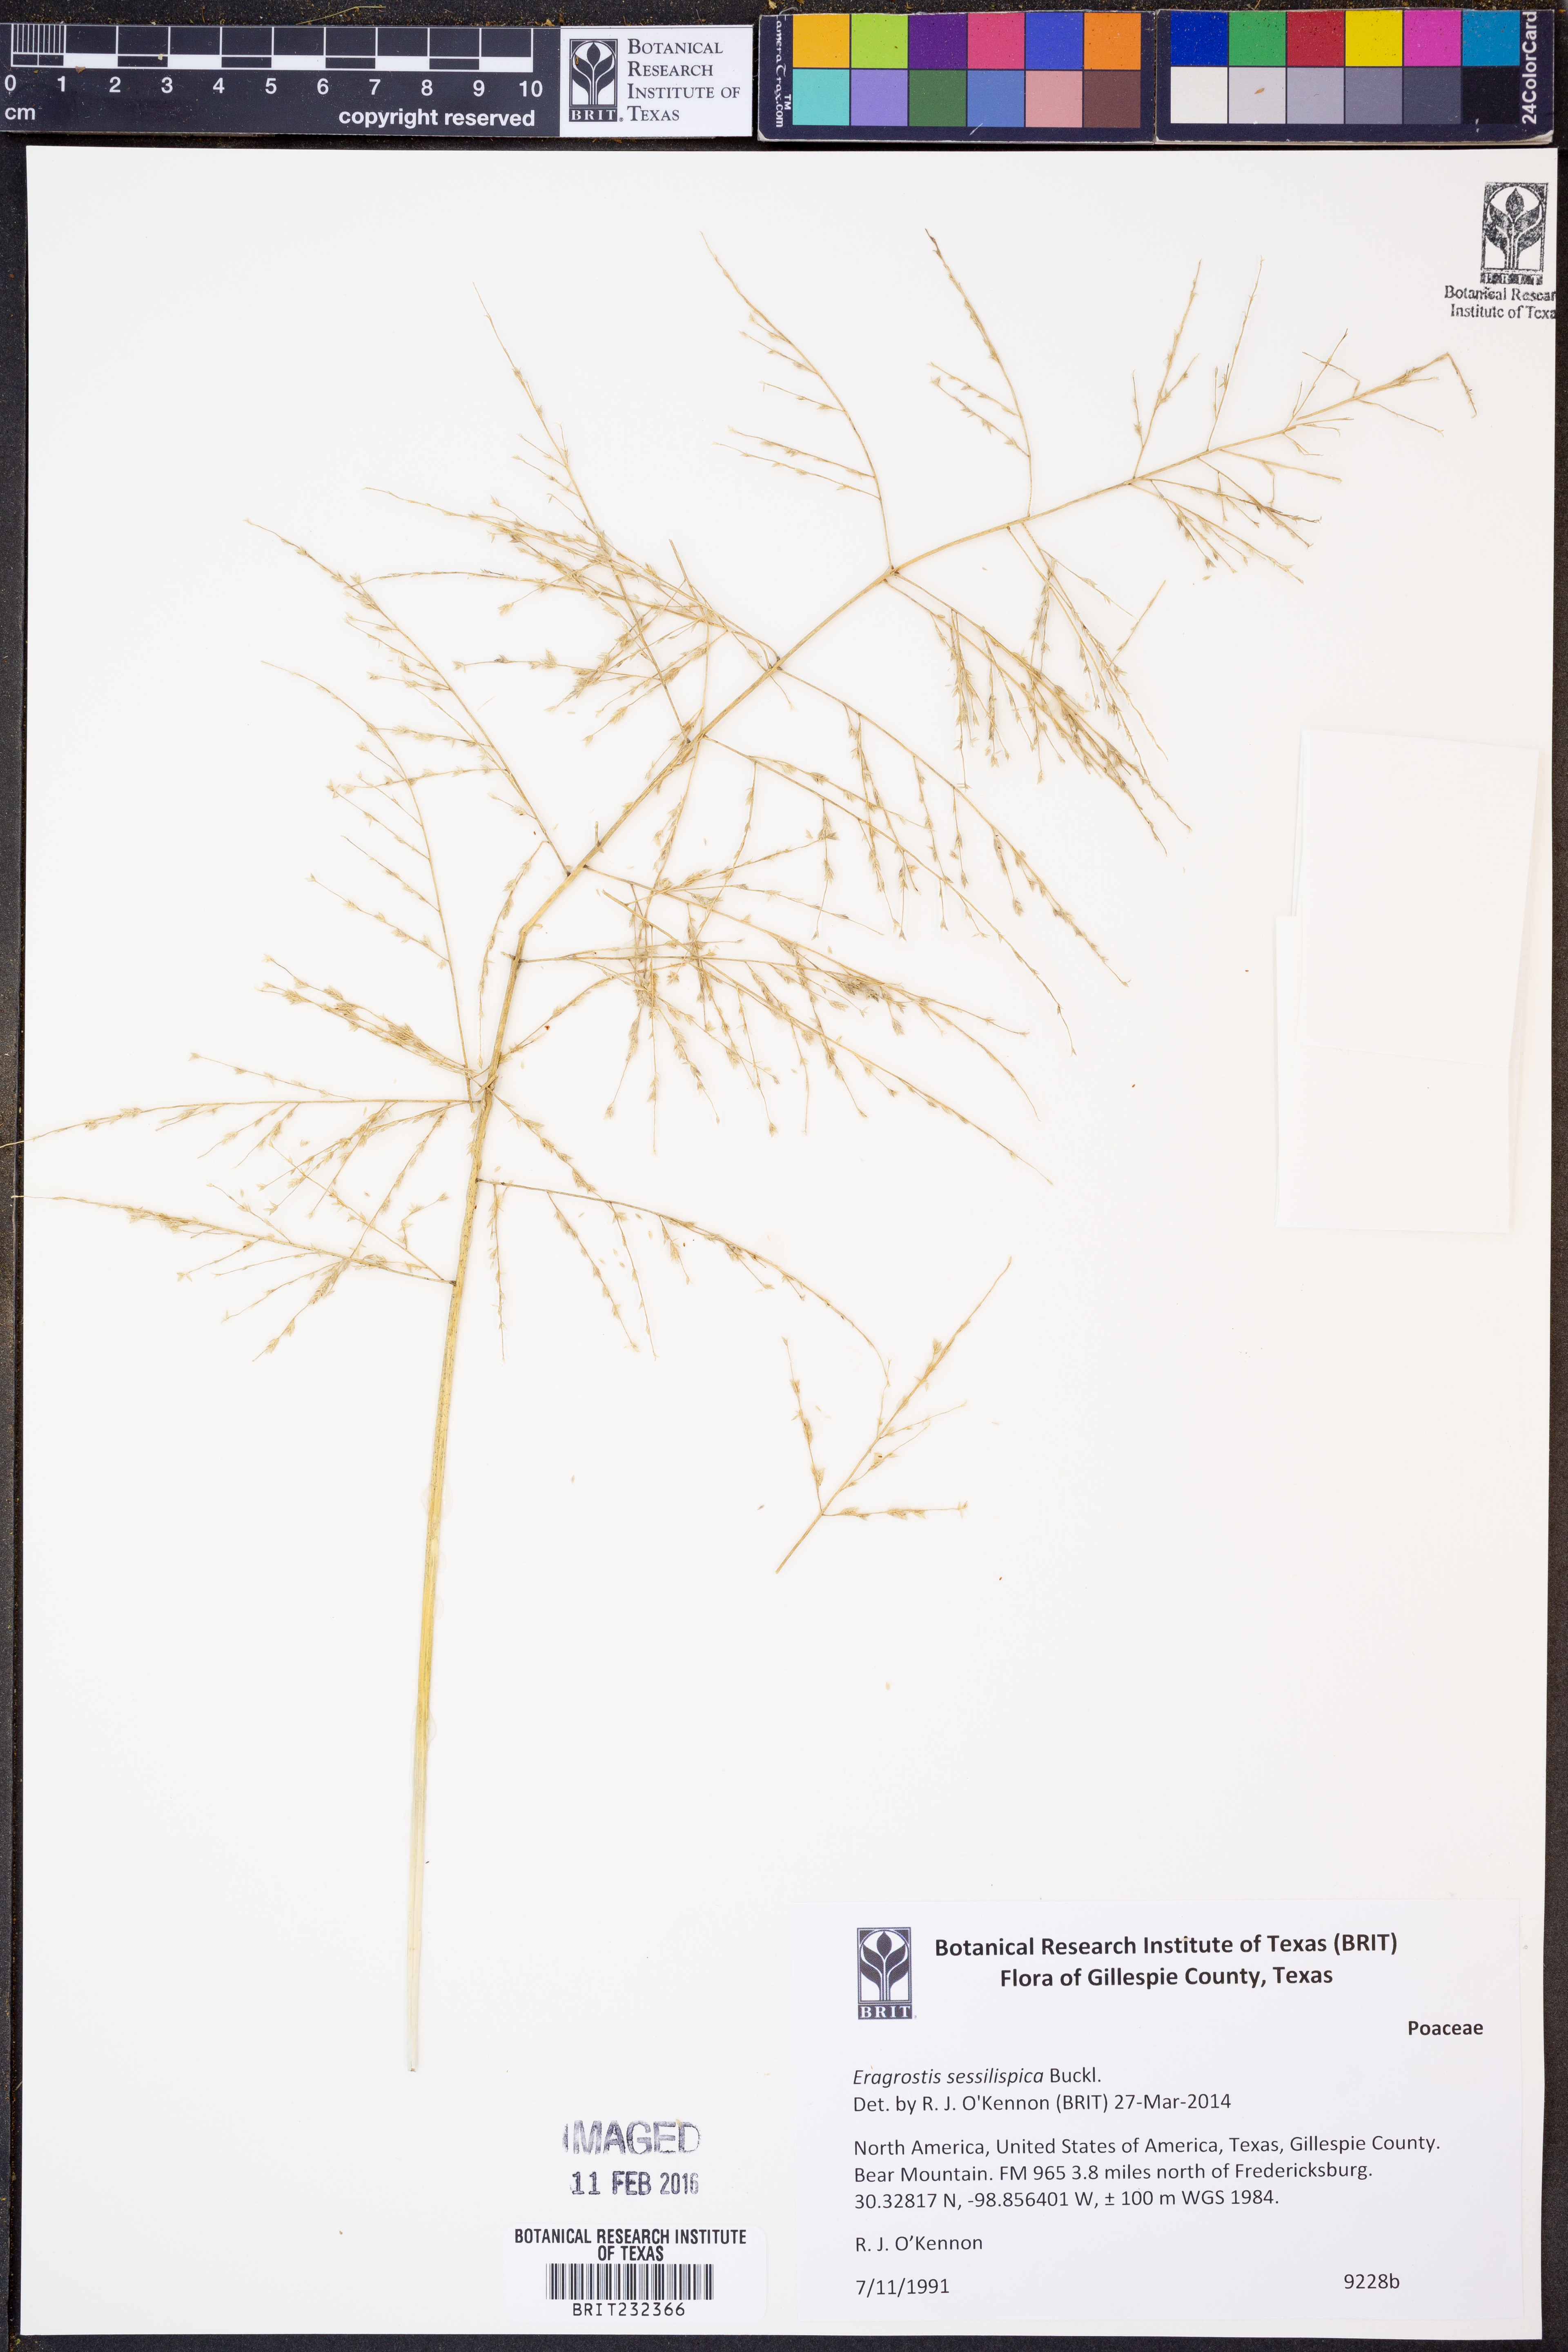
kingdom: Plantae
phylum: Tracheophyta
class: Liliopsida
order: Poales
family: Poaceae
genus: Eragrostis
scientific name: Eragrostis sessilispica
